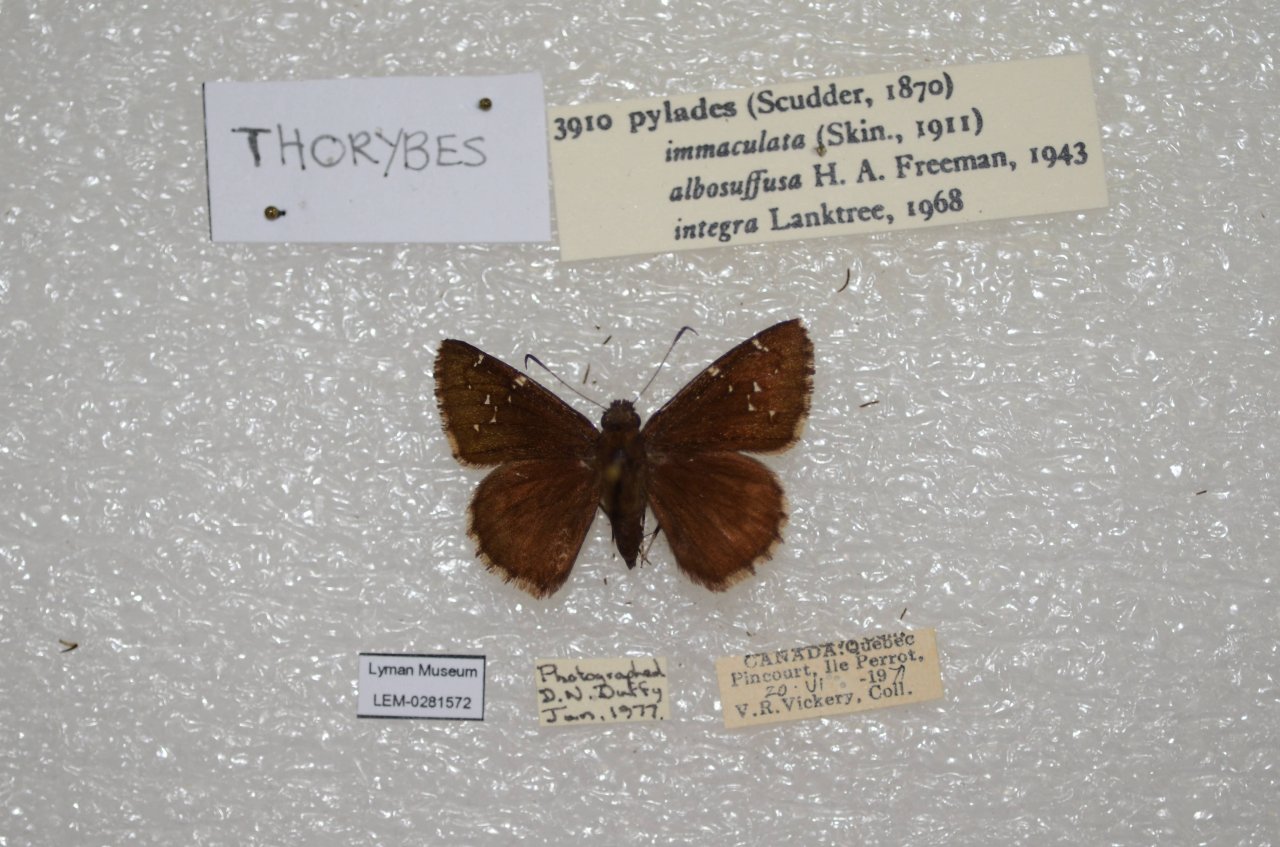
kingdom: Animalia
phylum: Arthropoda
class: Insecta
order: Lepidoptera
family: Hesperiidae
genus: Autochton
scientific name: Autochton
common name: Northern Cloudywing
